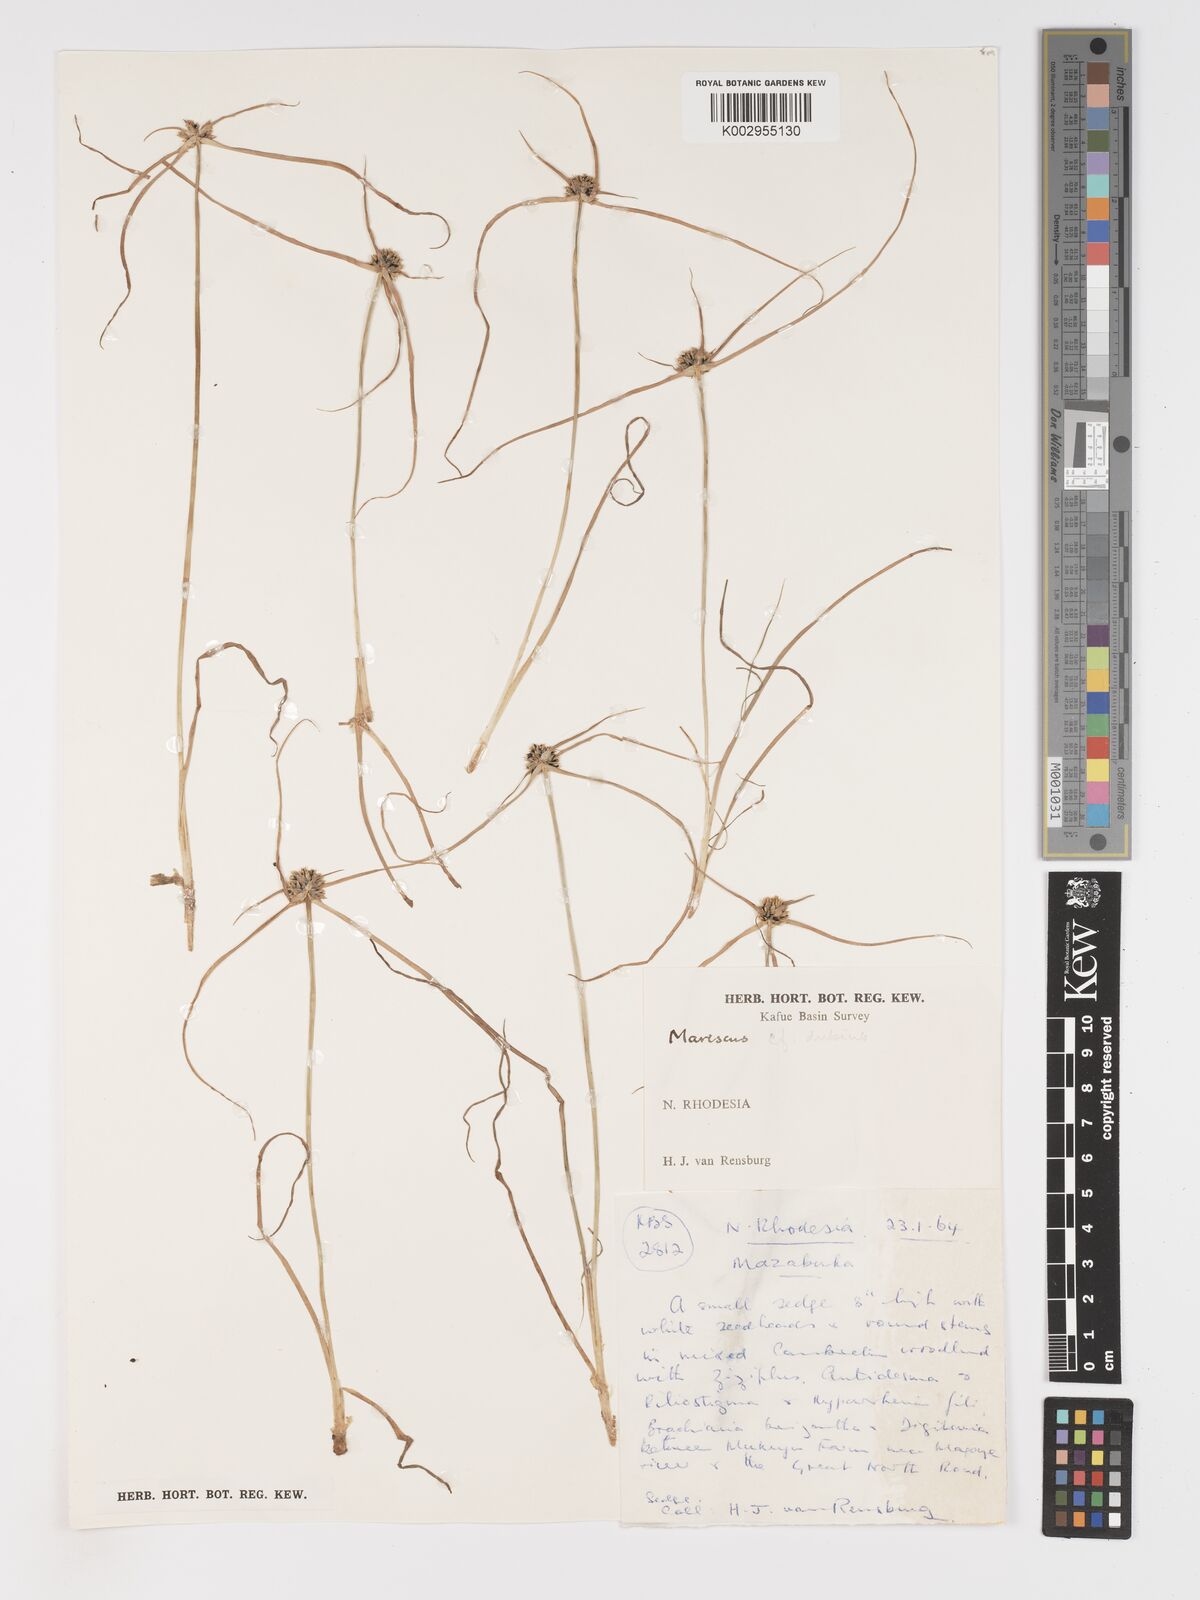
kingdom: Plantae
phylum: Tracheophyta
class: Liliopsida
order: Poales
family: Cyperaceae
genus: Cyperus
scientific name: Cyperus dubius
